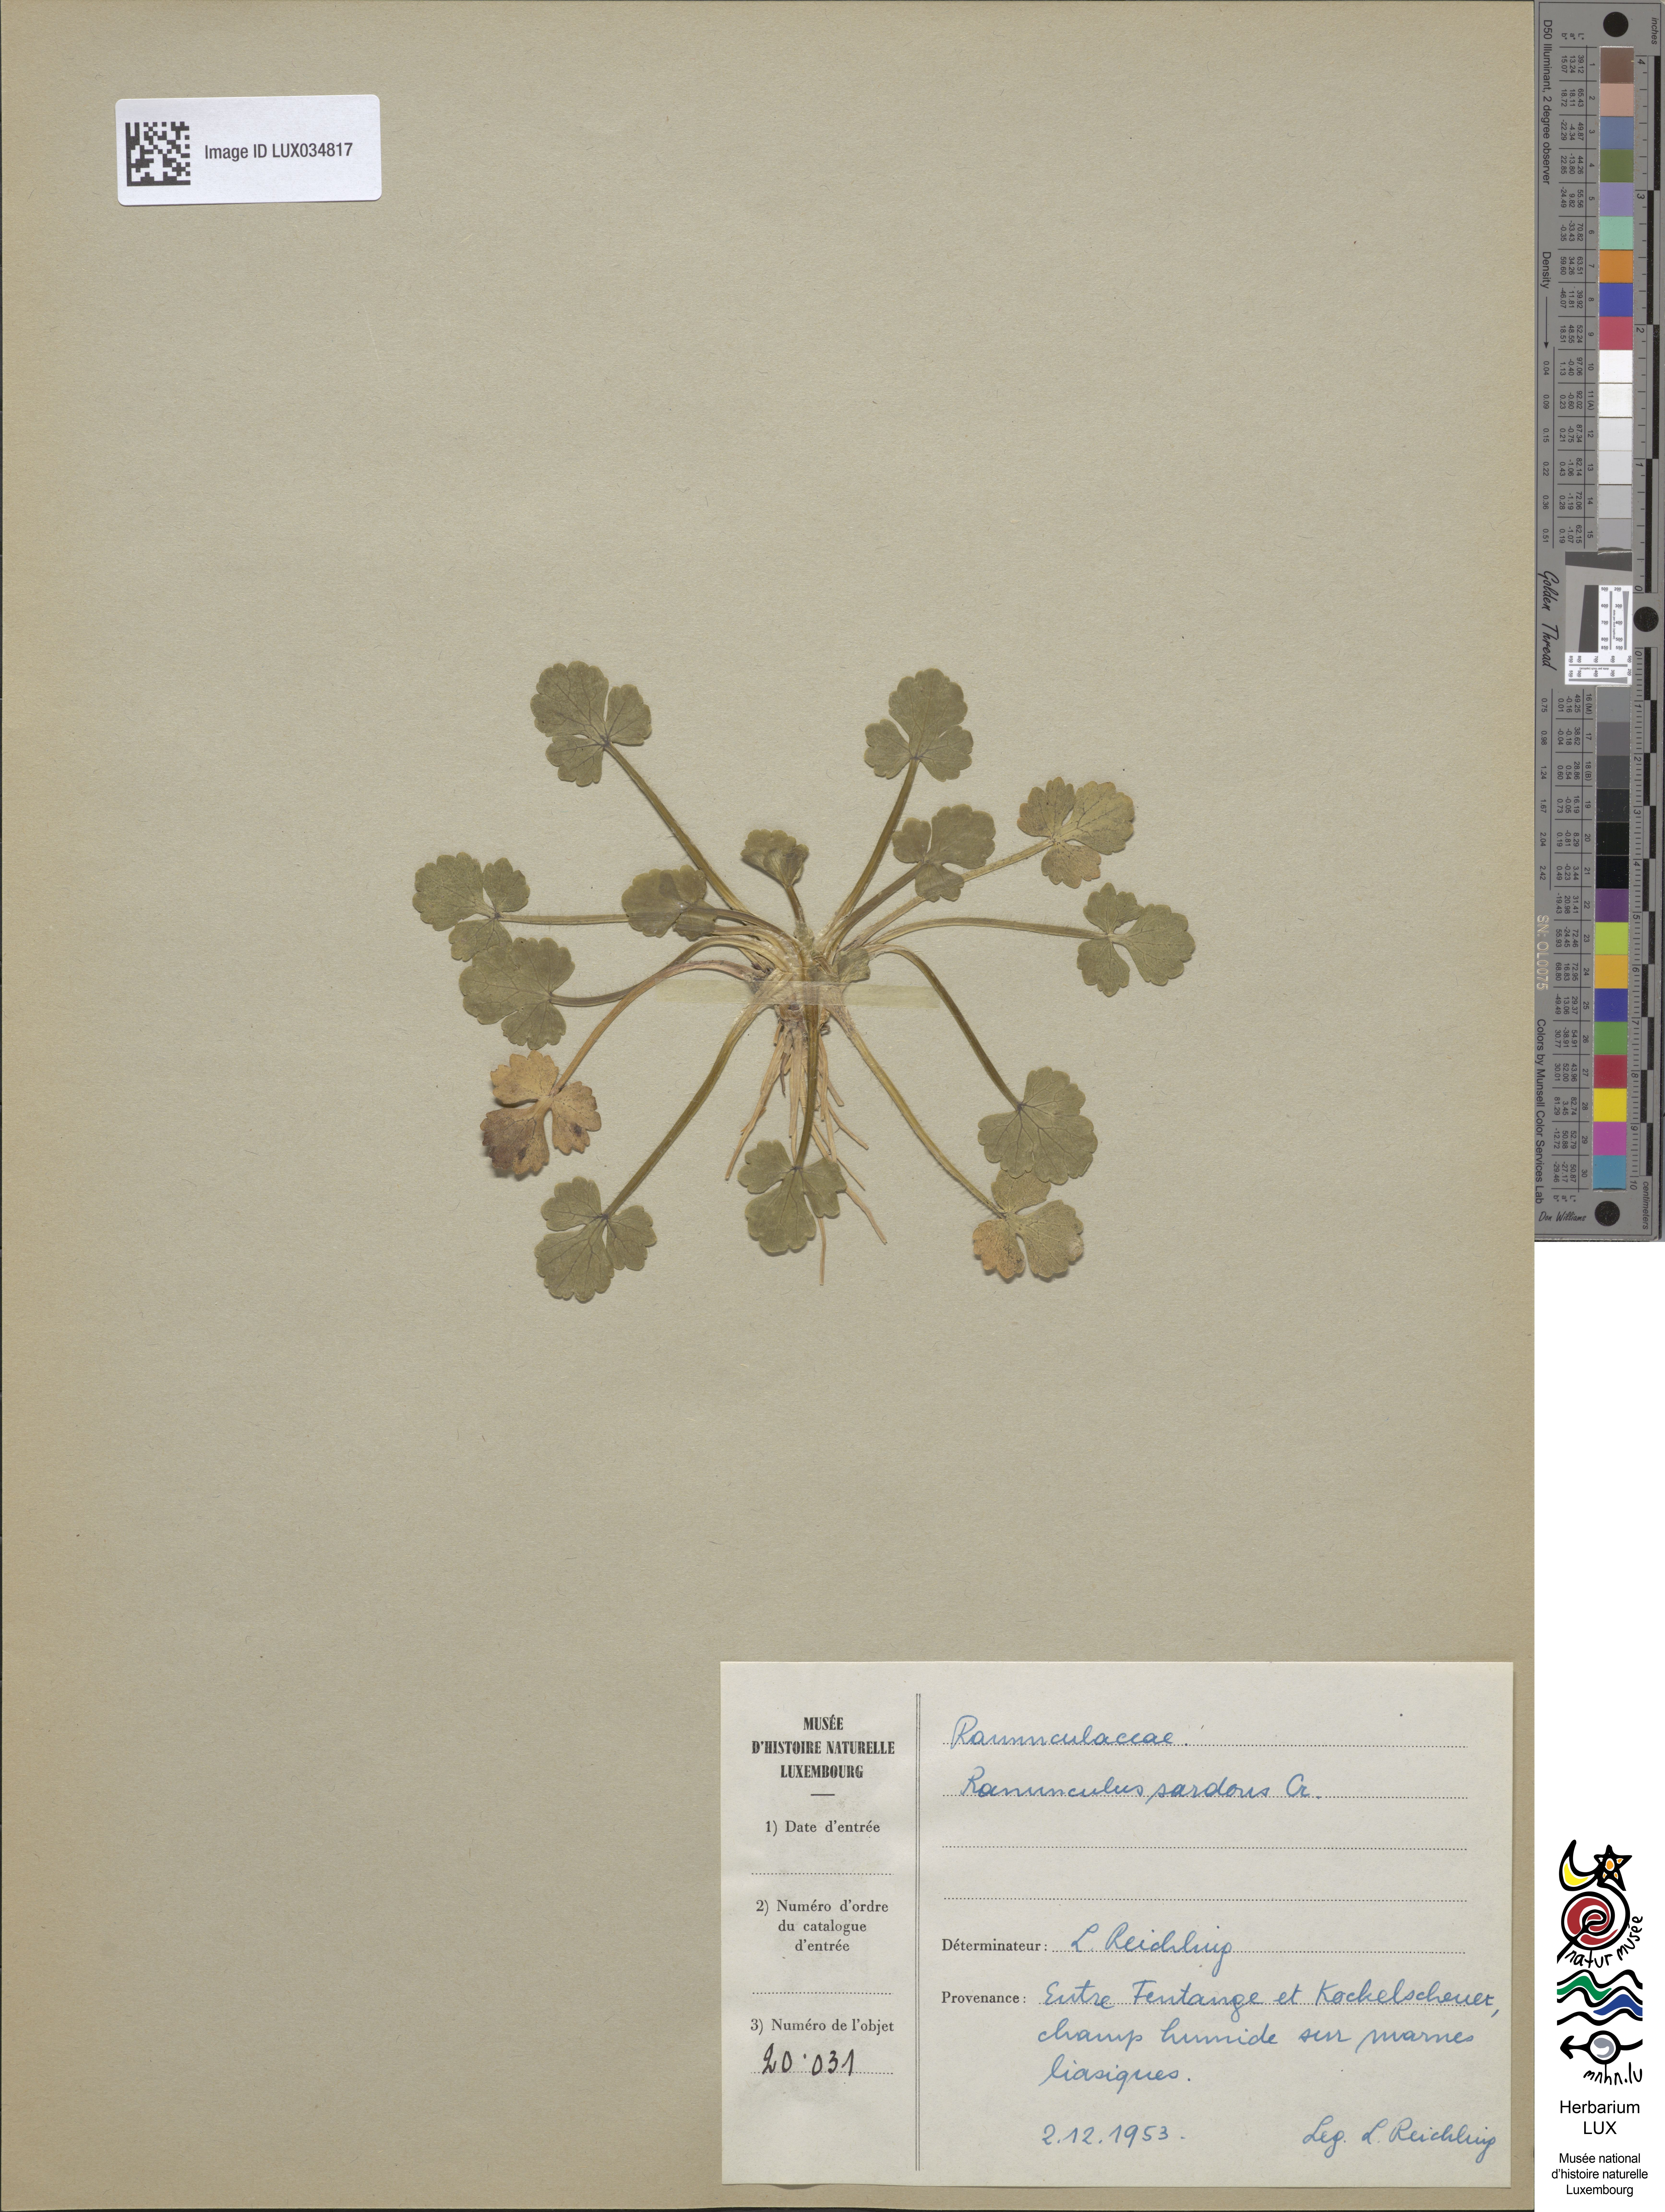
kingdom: Plantae
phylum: Tracheophyta
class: Magnoliopsida
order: Ranunculales
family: Ranunculaceae
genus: Ranunculus
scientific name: Ranunculus sardous
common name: Hairy buttercup
